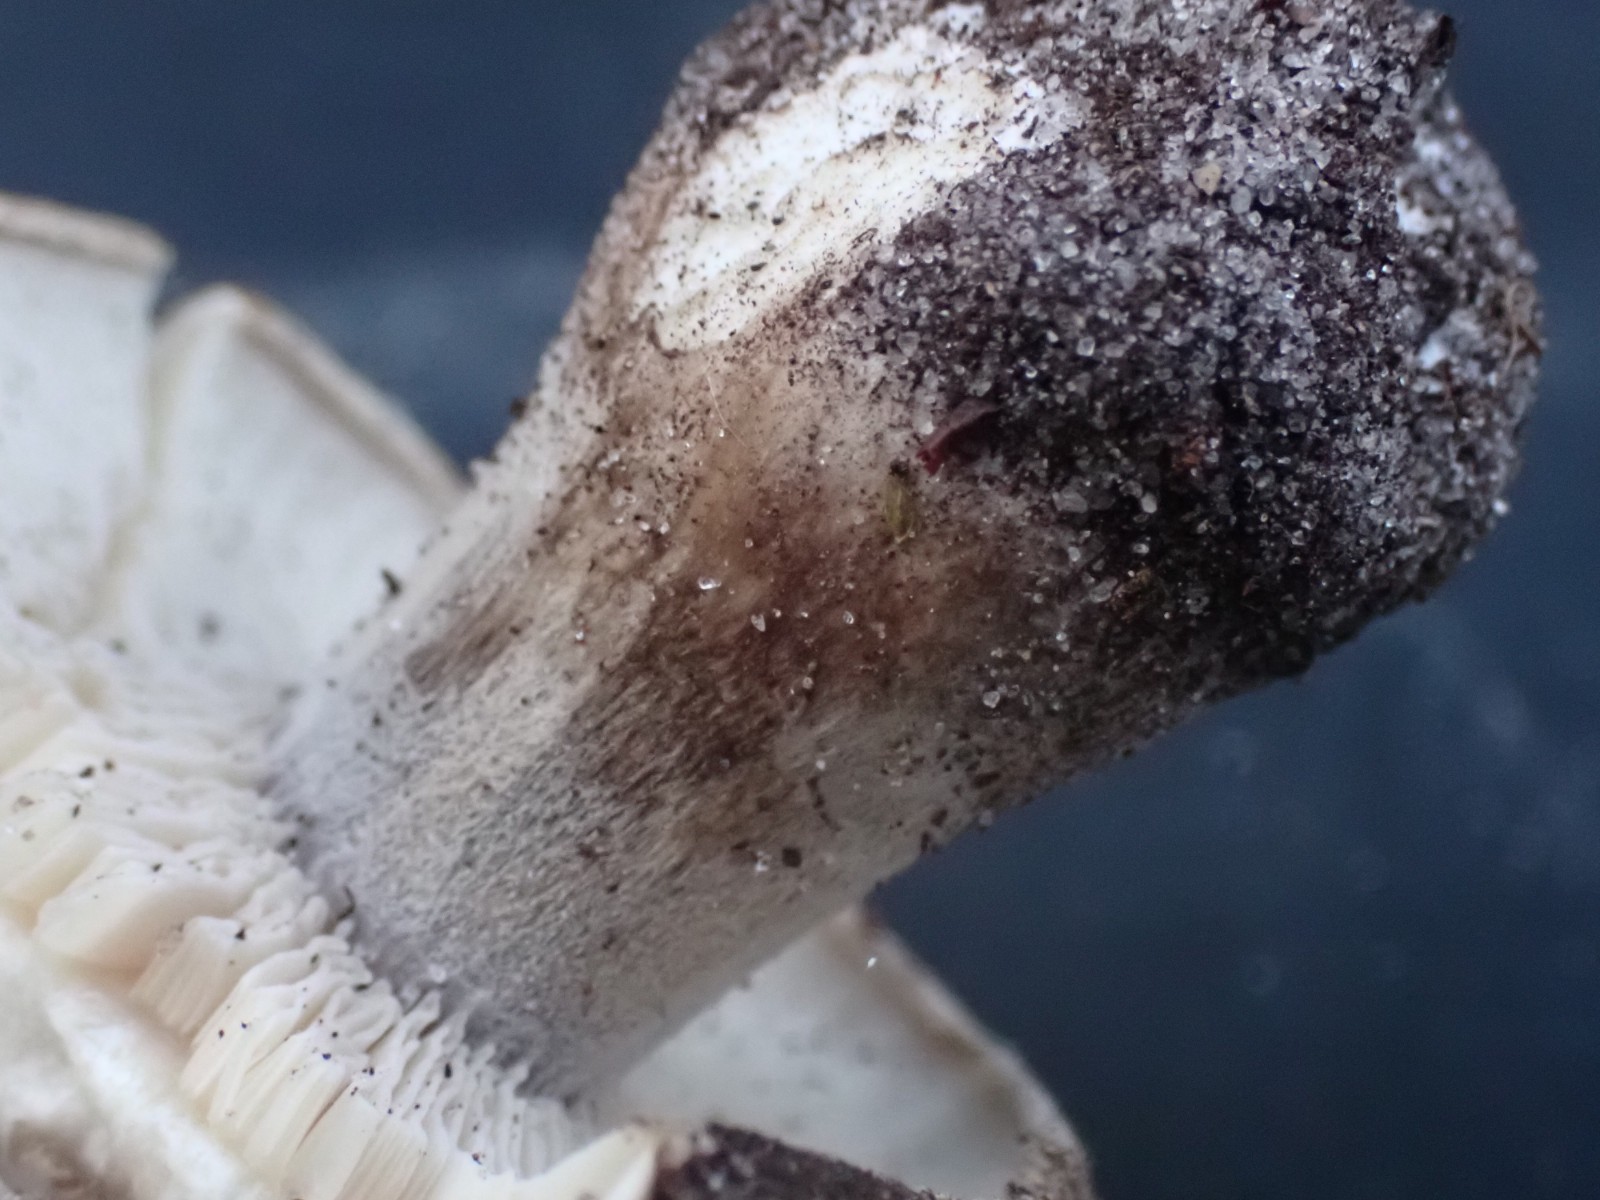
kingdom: Fungi
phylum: Basidiomycota
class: Agaricomycetes
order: Agaricales
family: Tricholomataceae
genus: Melanoleuca
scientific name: Melanoleuca
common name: munkehat
